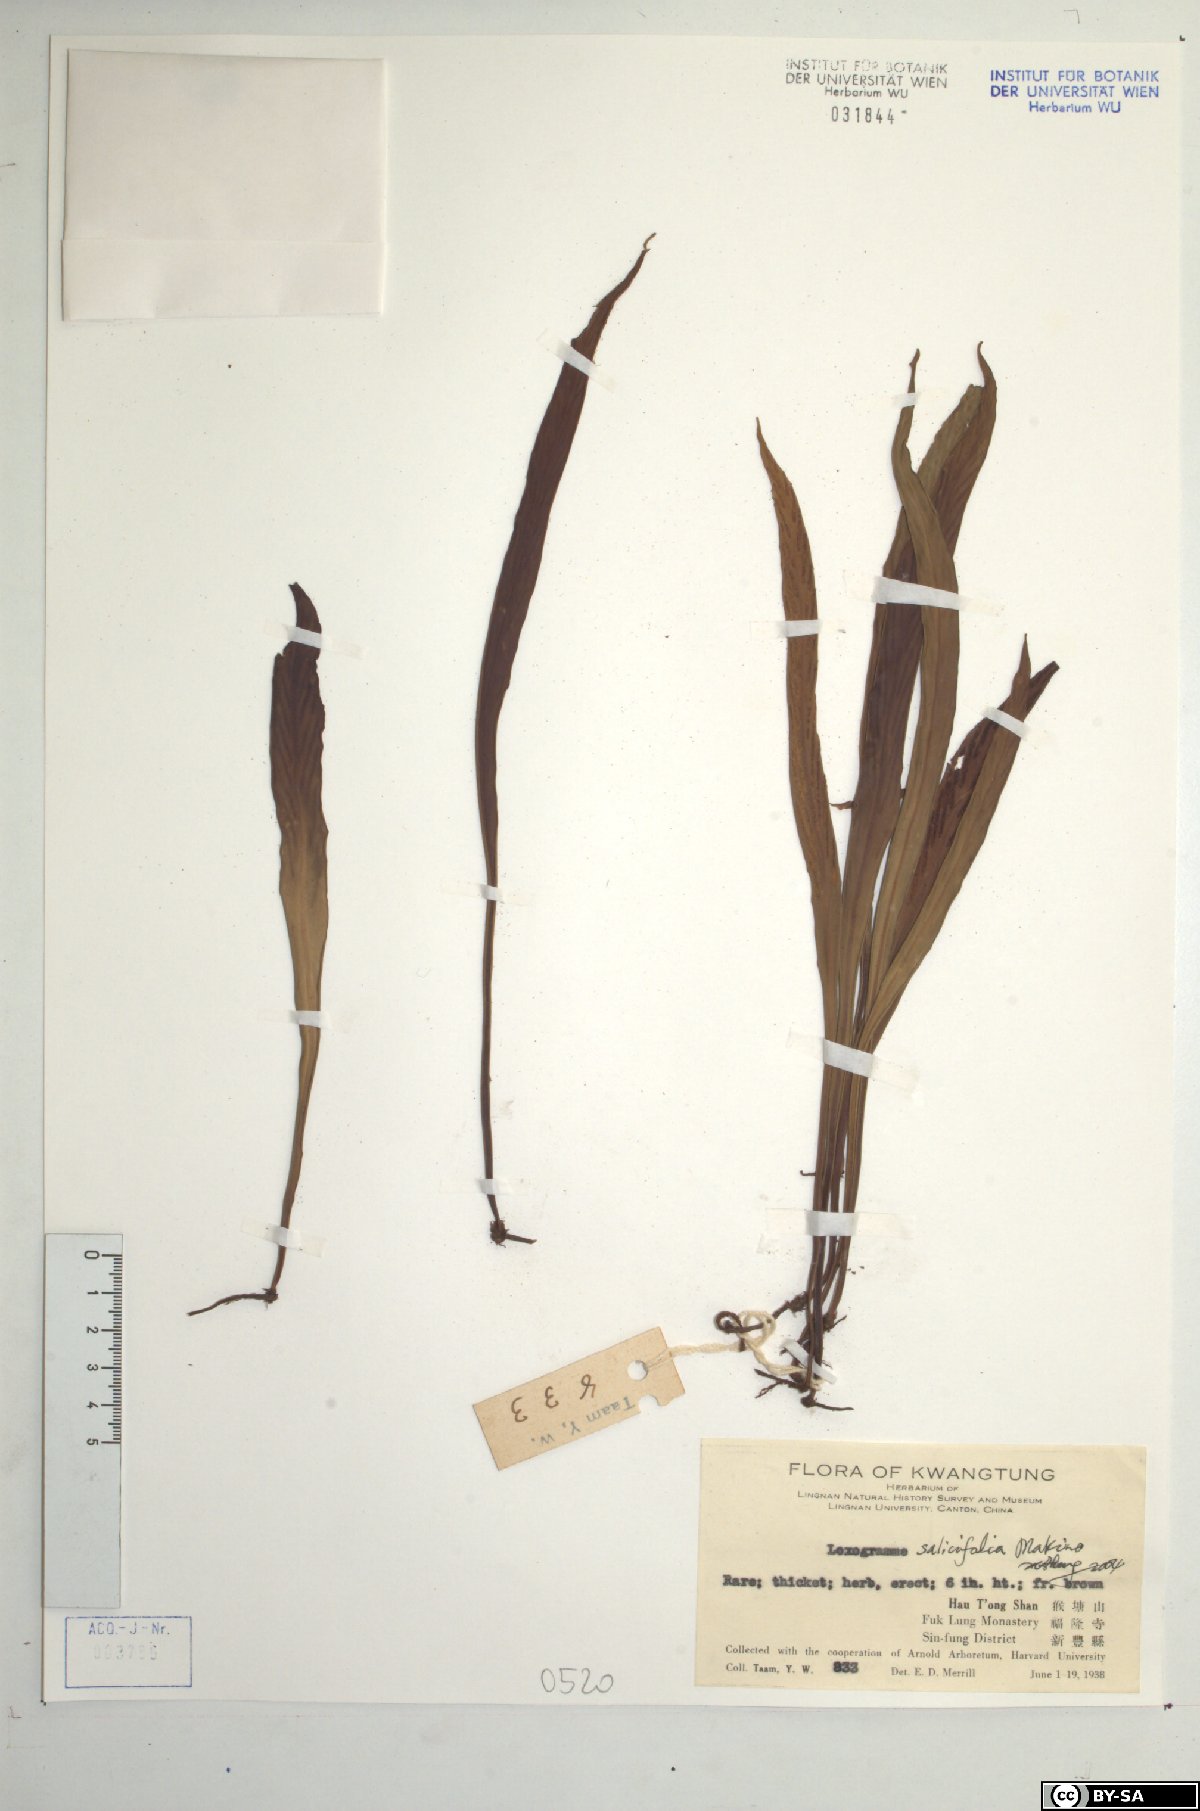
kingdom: Plantae
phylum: Tracheophyta
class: Polypodiopsida
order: Polypodiales
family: Polypodiaceae
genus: Loxogramme
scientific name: Loxogramme salicifolia
